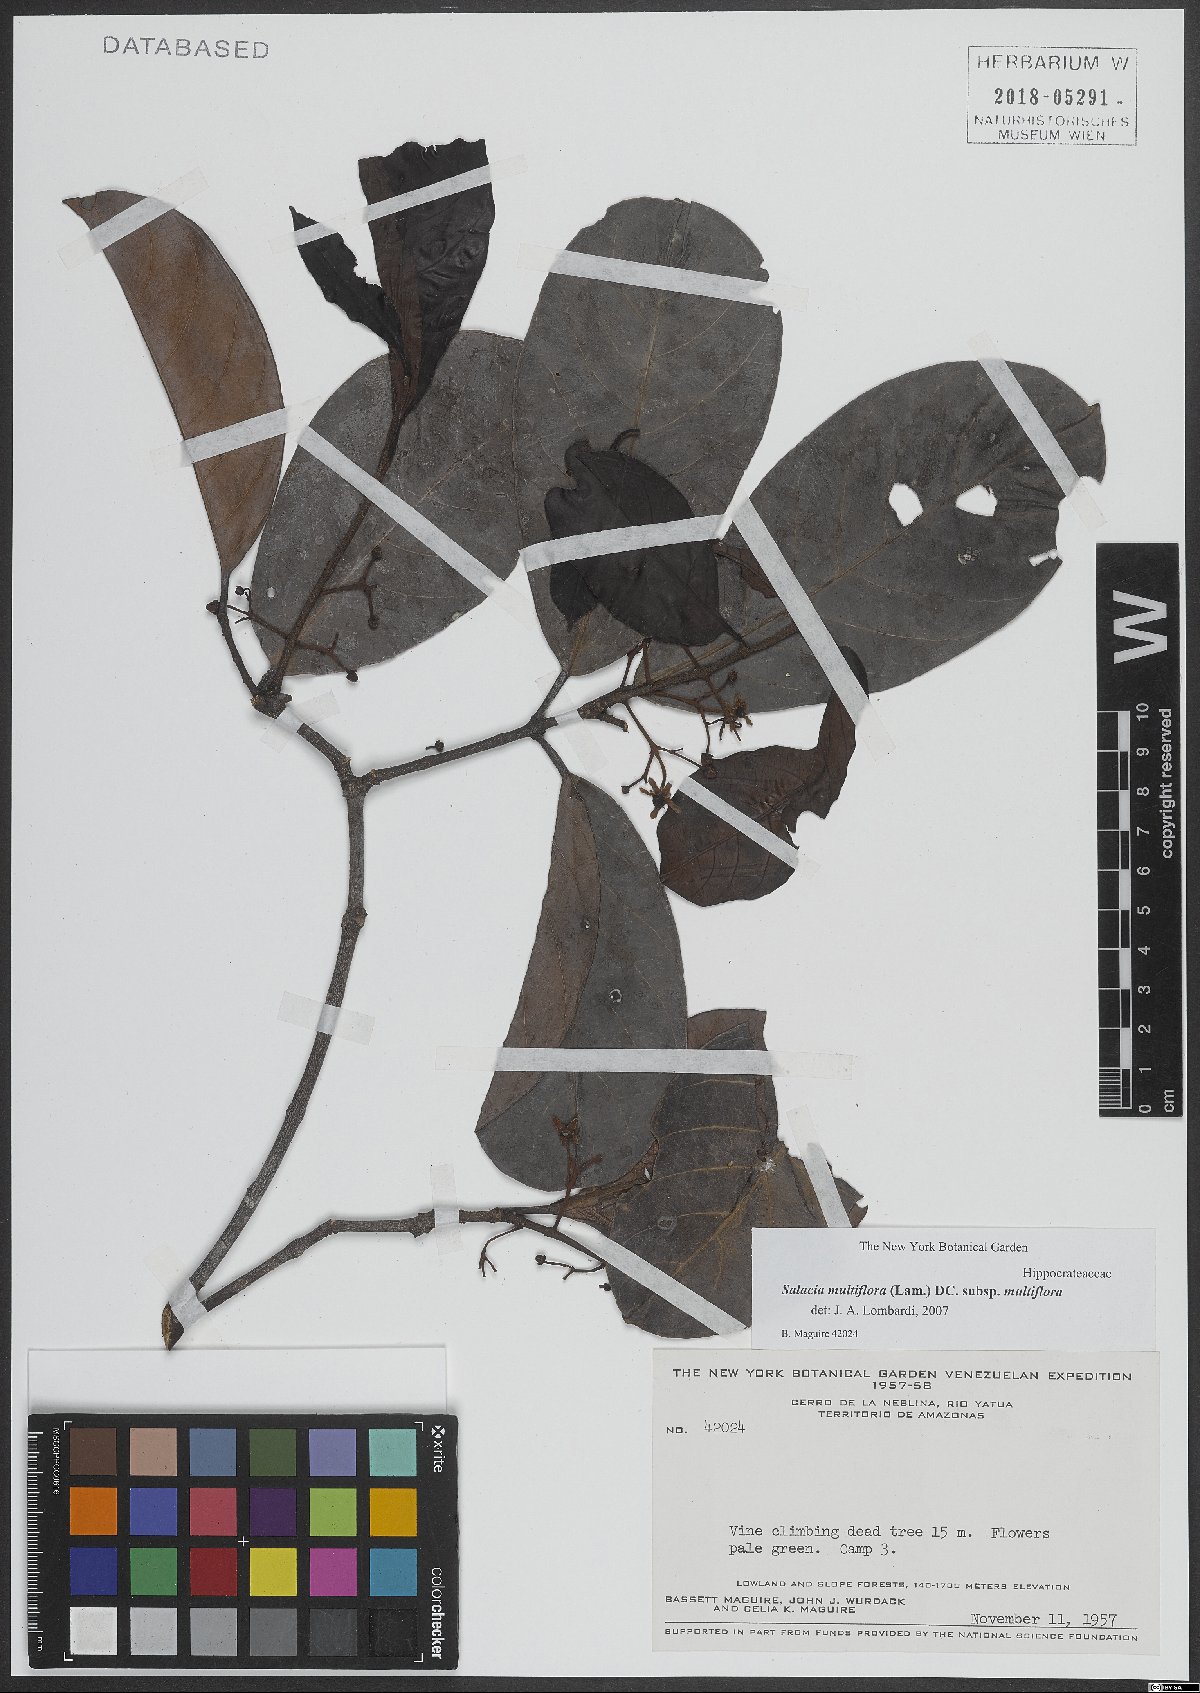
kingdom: Plantae
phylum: Tracheophyta
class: Magnoliopsida
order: Celastrales
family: Celastraceae
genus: Salacia
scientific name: Salacia multiflora
